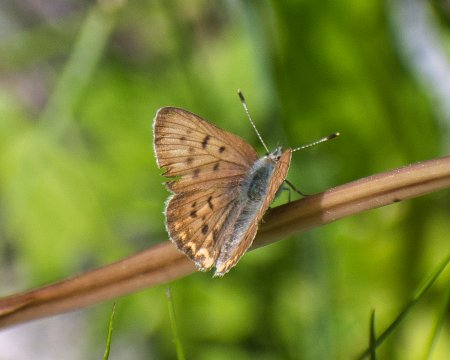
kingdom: Animalia
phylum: Arthropoda
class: Insecta
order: Lepidoptera
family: Sesiidae
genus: Sesia
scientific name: Sesia Lycaena helloides
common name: Purplish Copper
